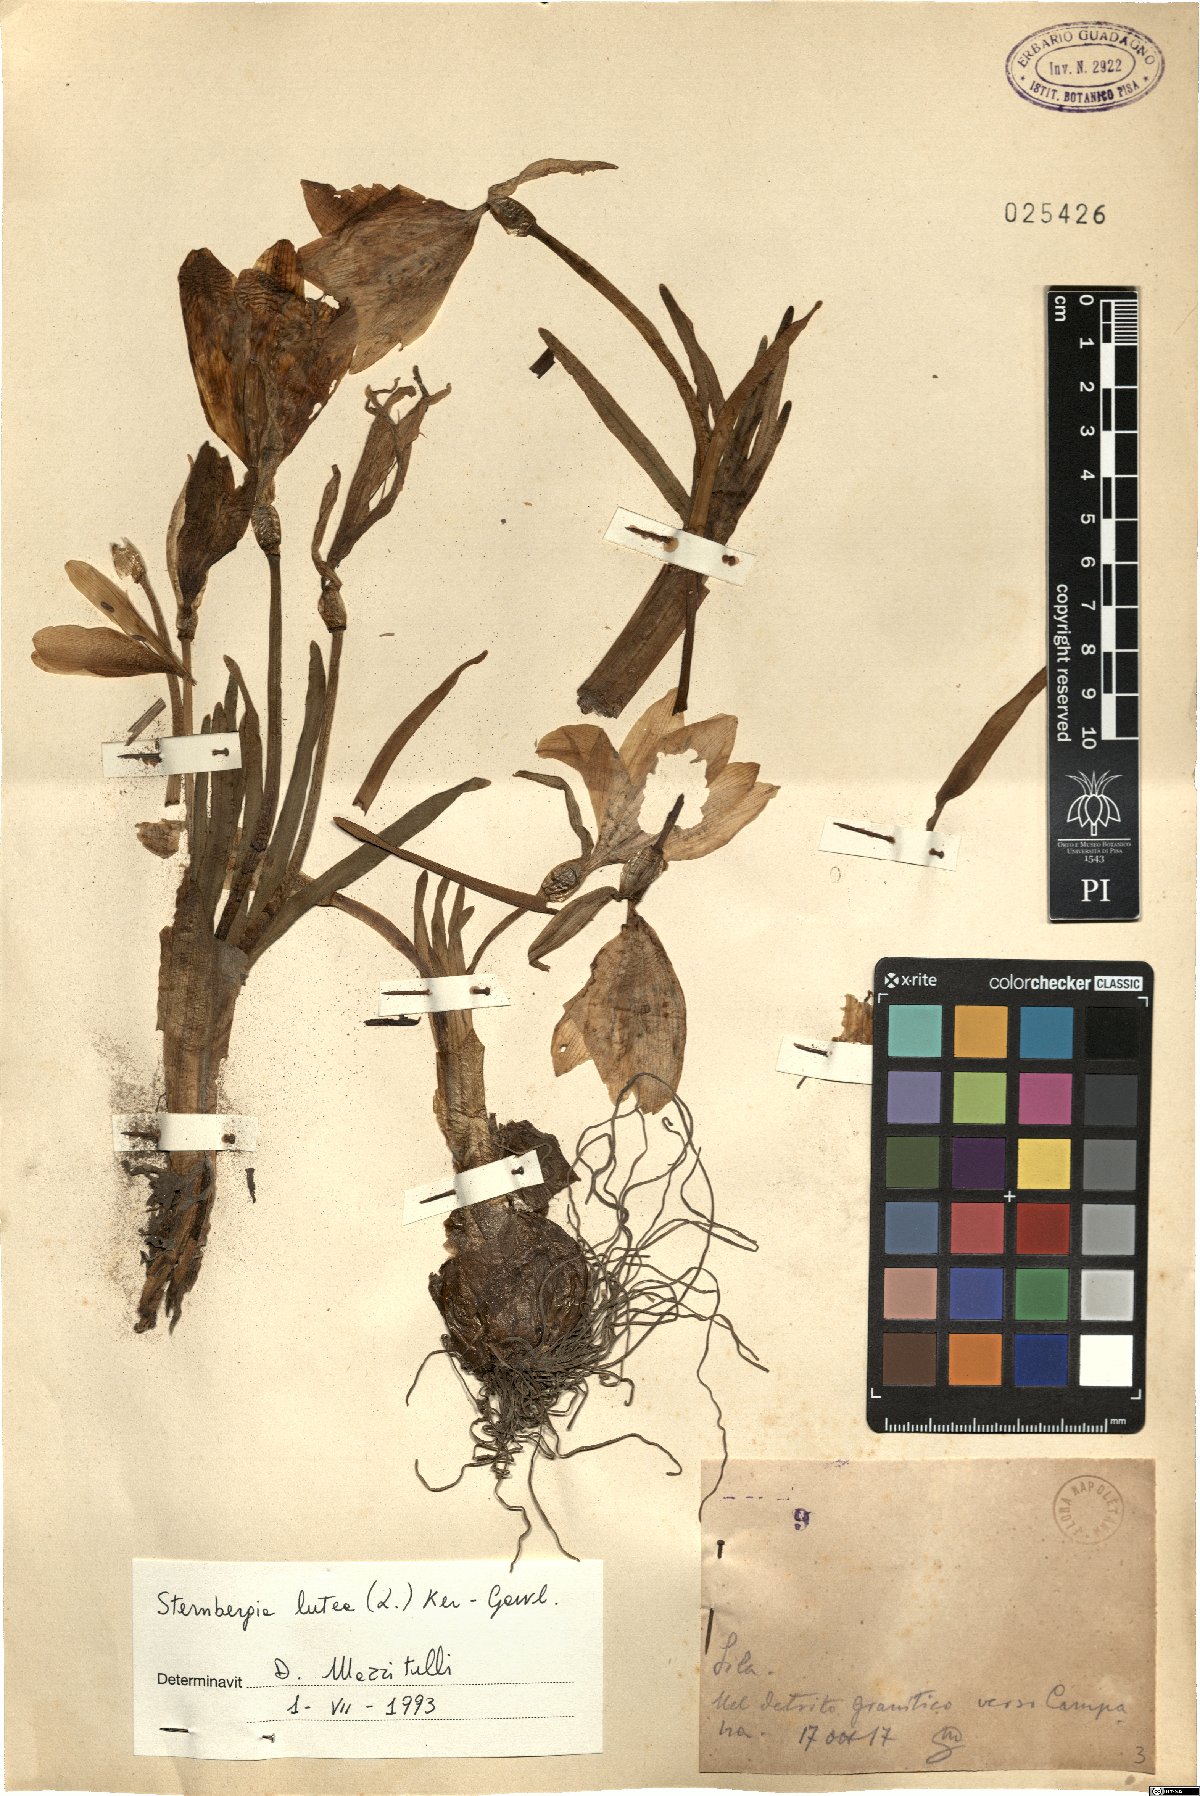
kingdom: Plantae
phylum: Tracheophyta
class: Liliopsida
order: Asparagales
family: Amaryllidaceae
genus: Sternbergia
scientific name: Sternbergia lutea
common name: Winter daffodil
